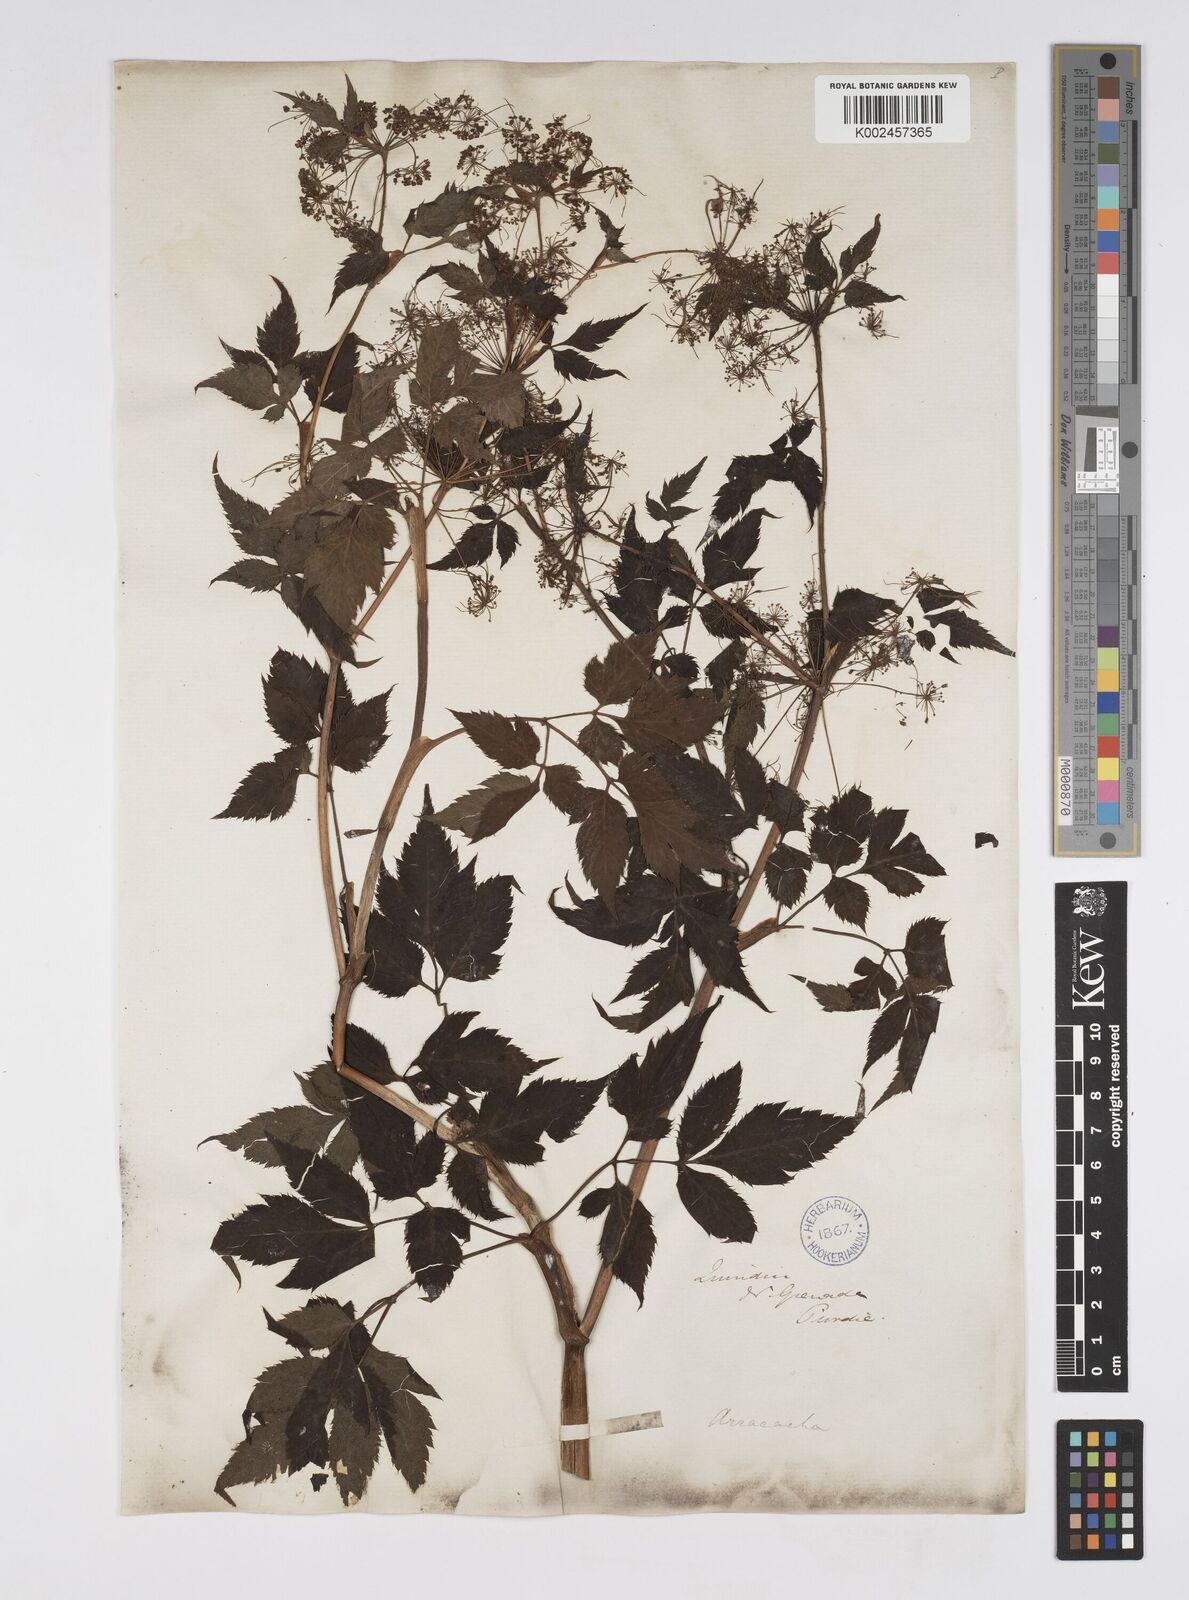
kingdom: Plantae
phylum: Tracheophyta
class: Magnoliopsida
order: Apiales
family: Apiaceae
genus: Neonelsonia
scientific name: Neonelsonia acuminata
